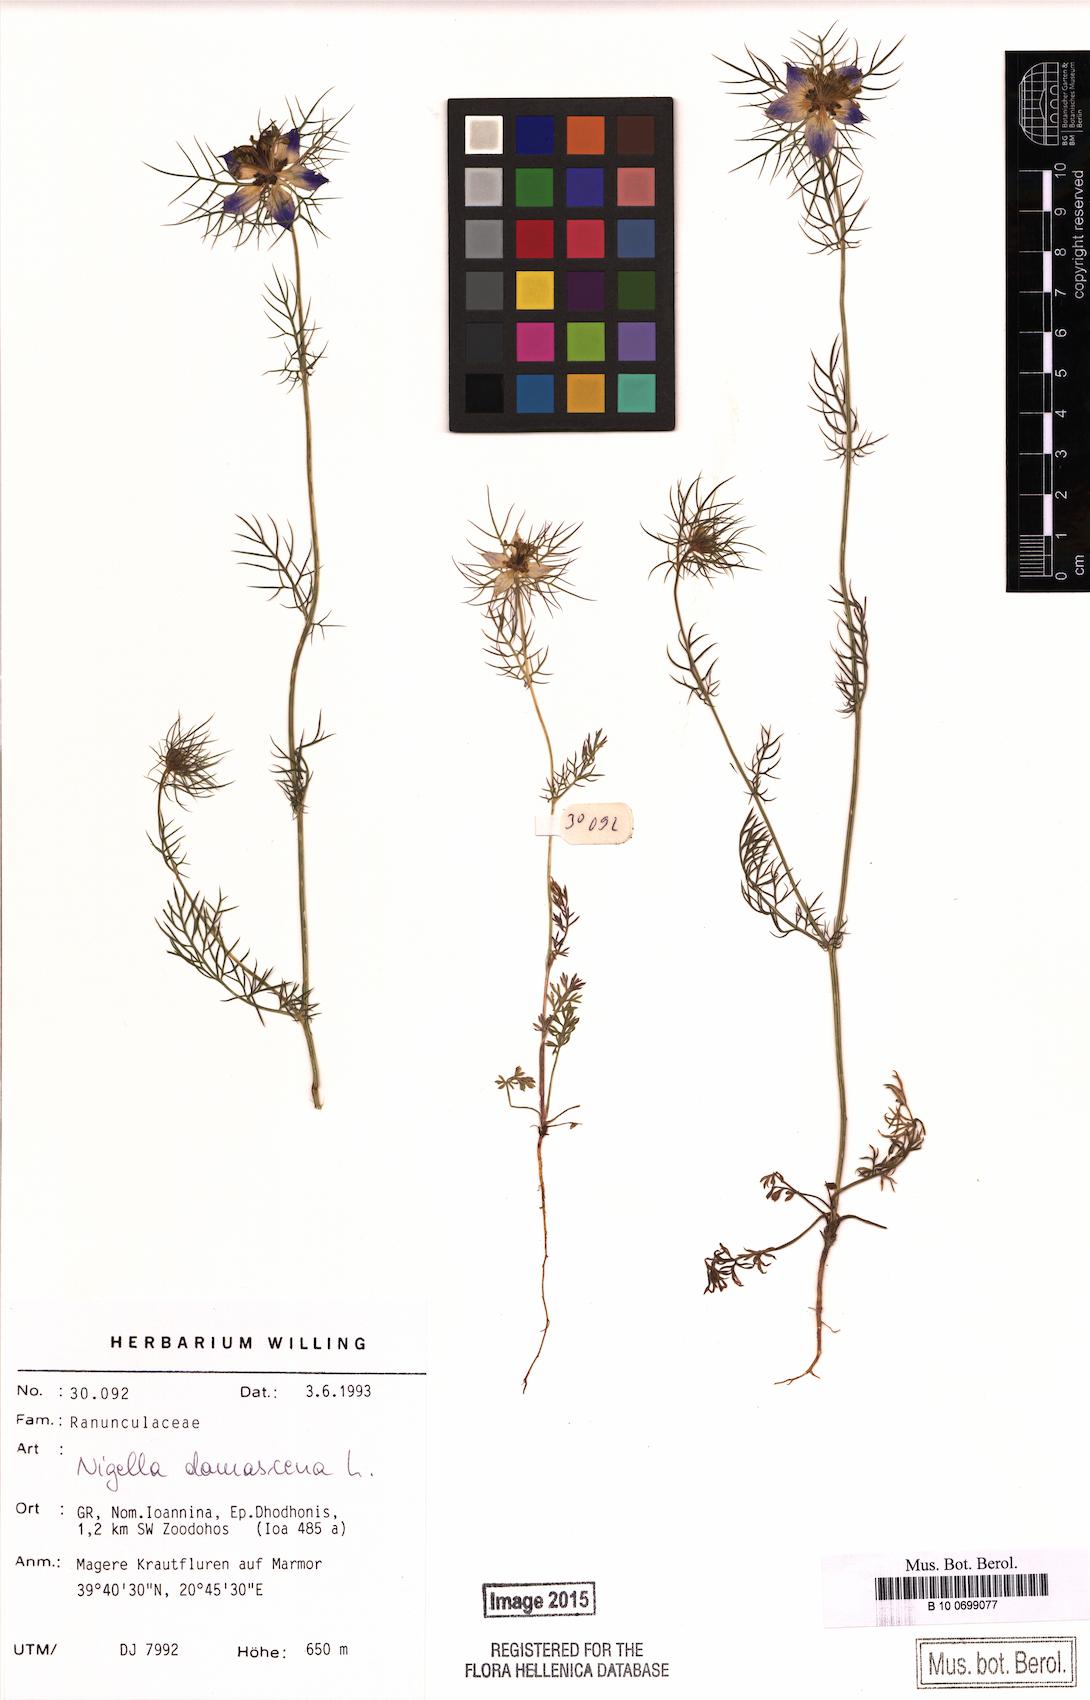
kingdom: Plantae
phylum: Tracheophyta
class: Magnoliopsida
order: Ranunculales
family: Ranunculaceae
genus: Nigella
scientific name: Nigella damascena
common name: Love-in-a-mist
